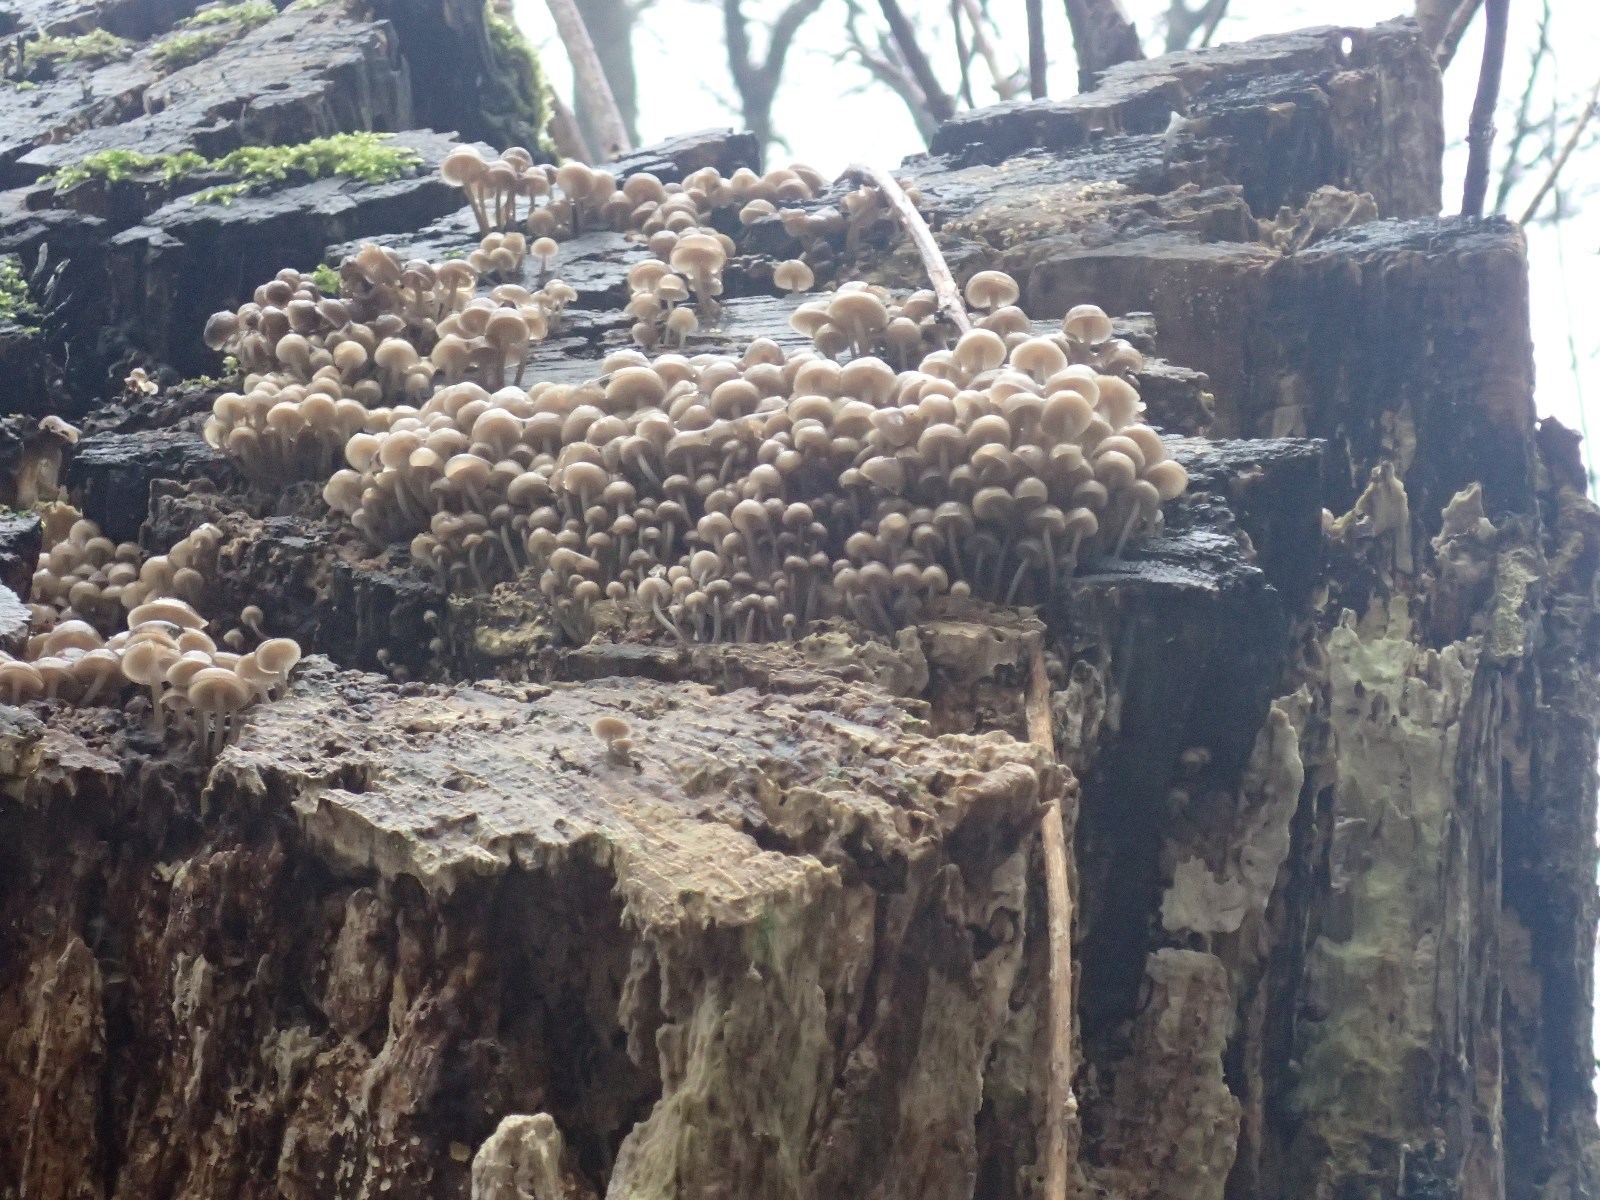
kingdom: Fungi
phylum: Basidiomycota
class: Agaricomycetes
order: Agaricales
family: Mycenaceae
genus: Mycena
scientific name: Mycena tintinnabulum
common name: vinter-huesvamp
